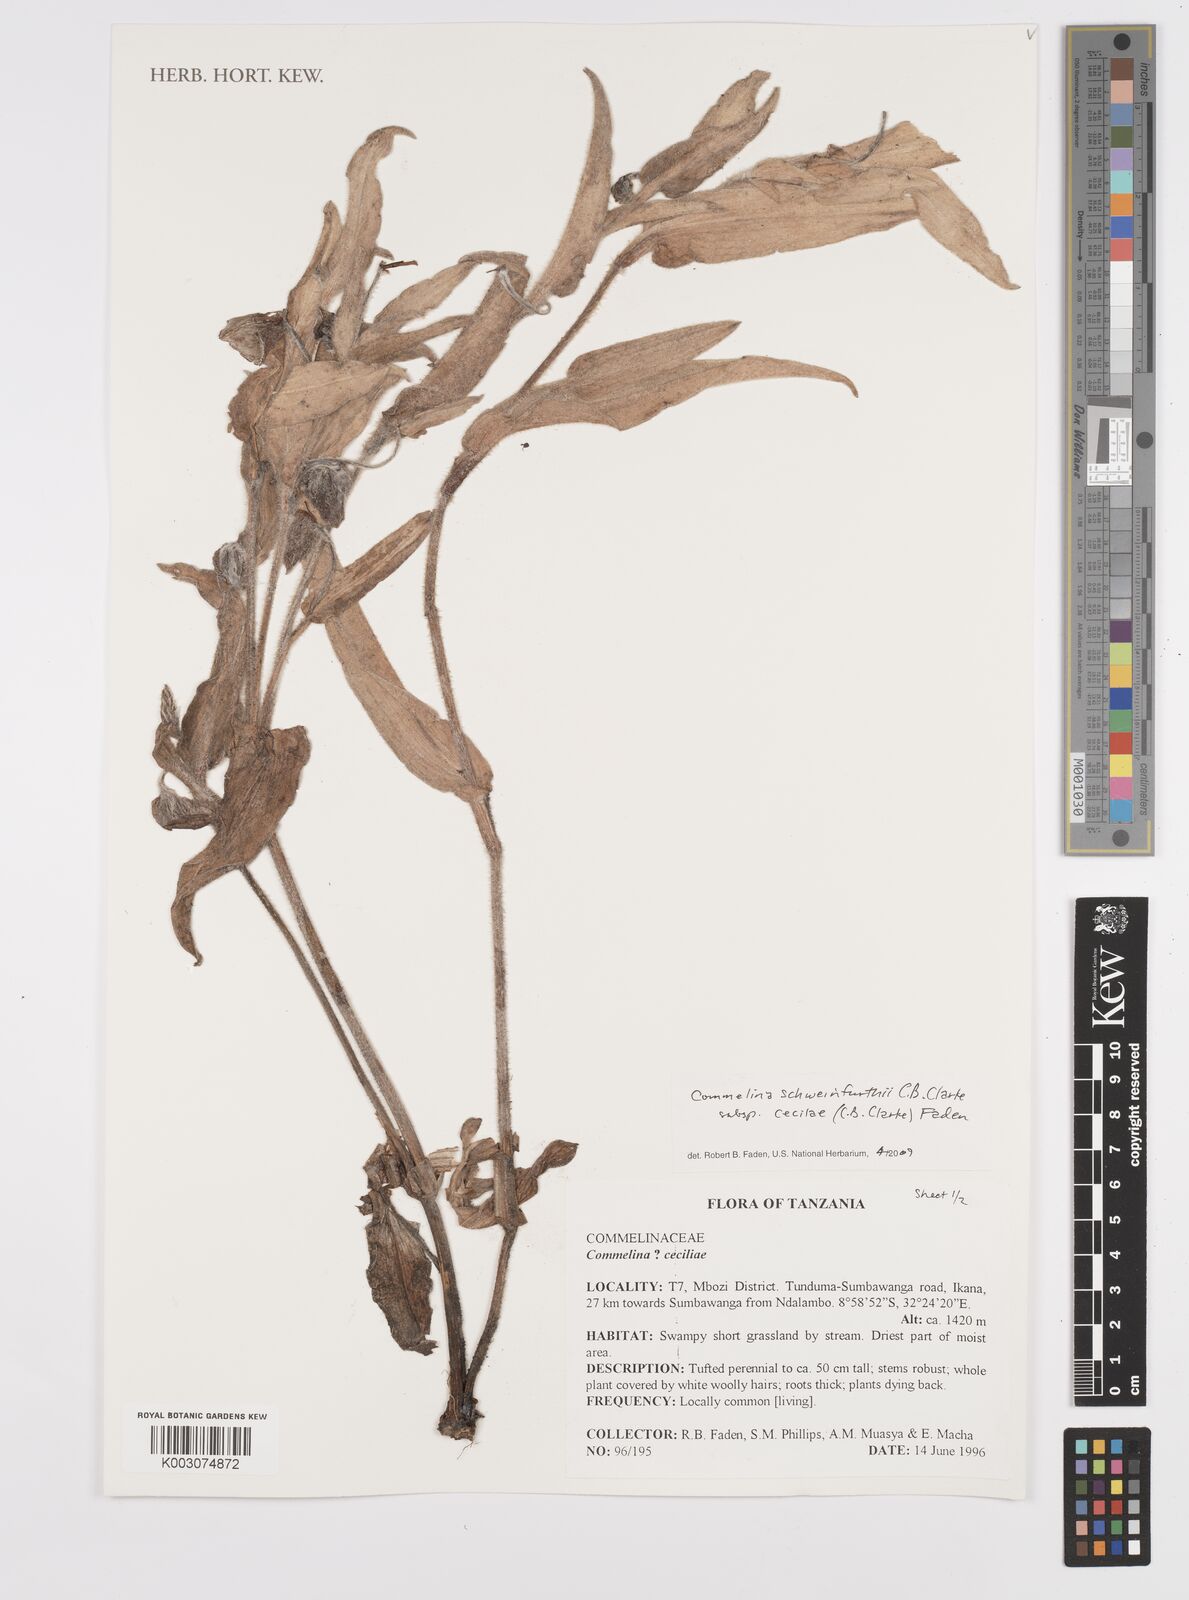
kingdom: Plantae
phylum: Tracheophyta
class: Liliopsida
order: Commelinales
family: Commelinaceae
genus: Commelina
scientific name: Commelina cecilae
